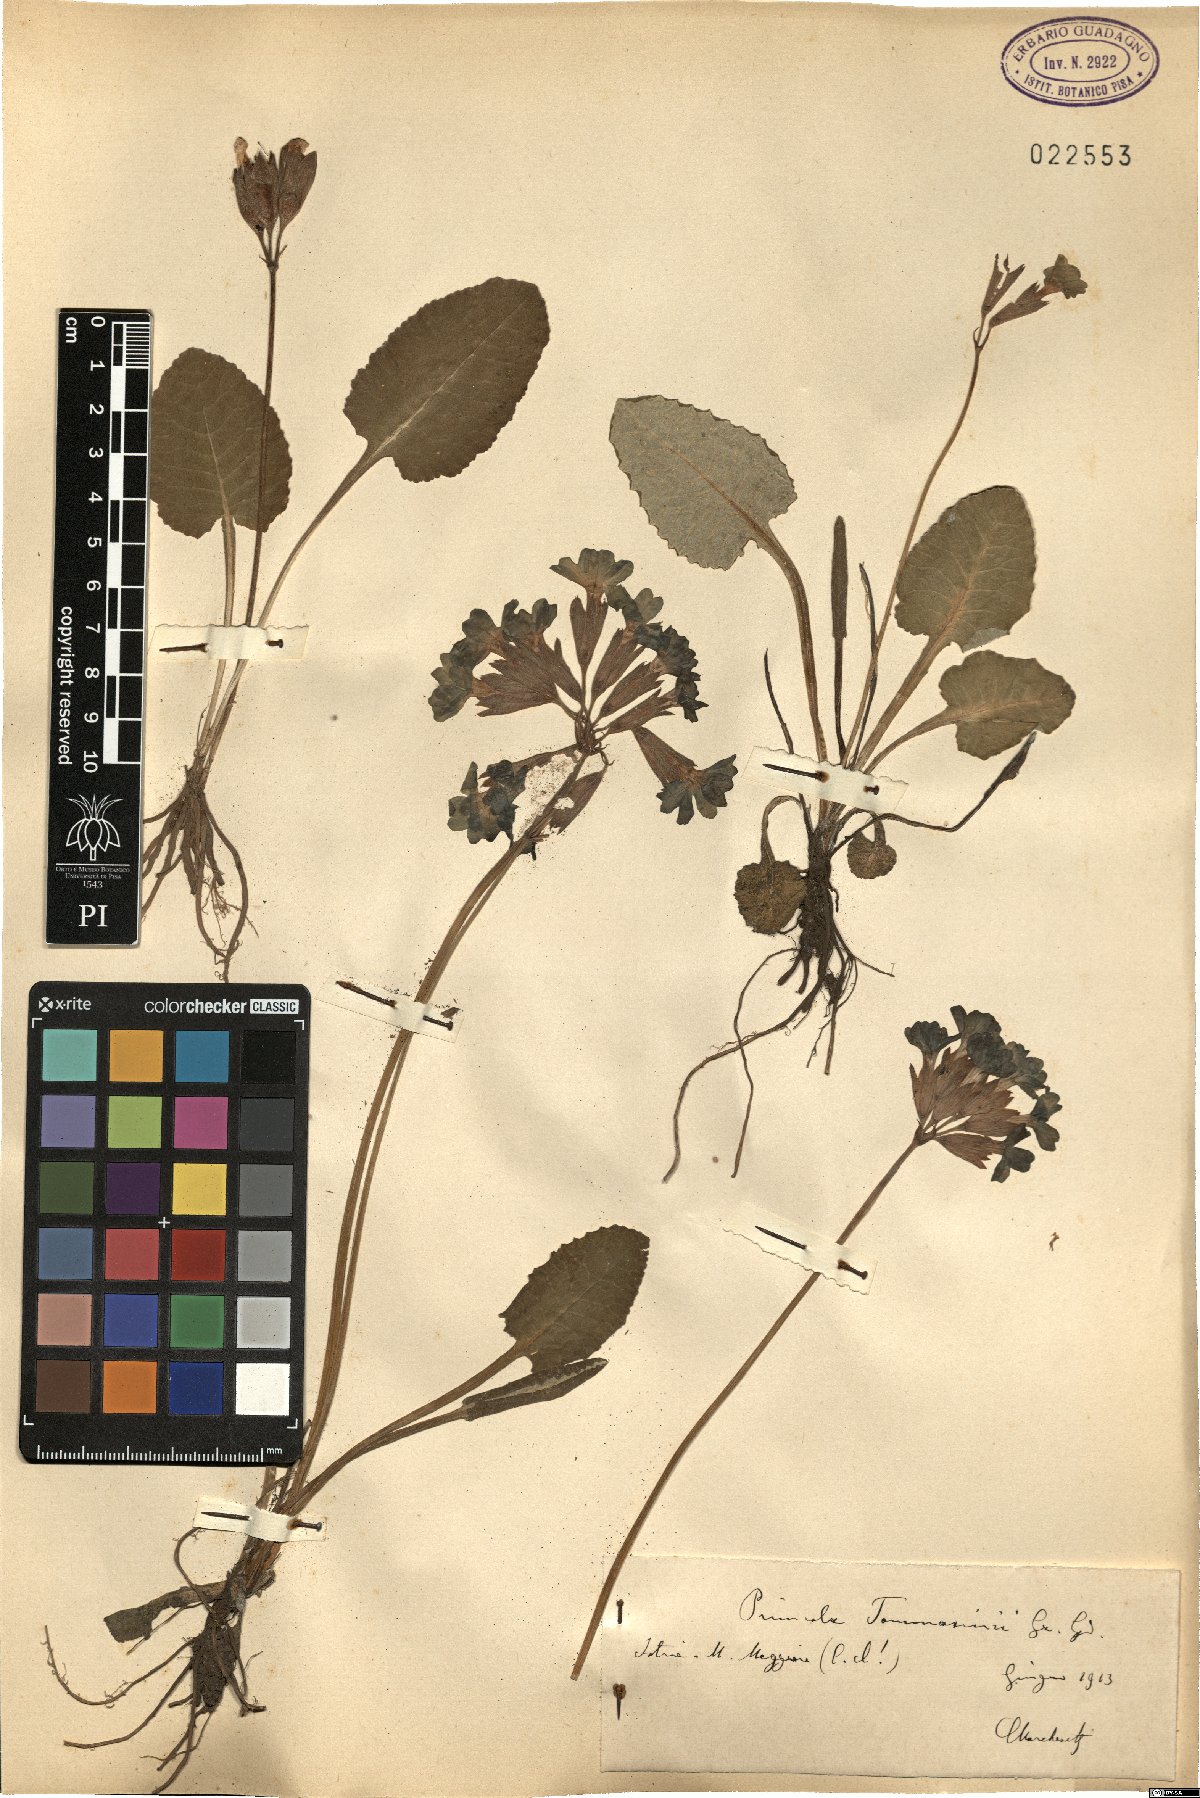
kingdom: Plantae
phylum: Tracheophyta
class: Magnoliopsida
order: Ericales
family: Primulaceae
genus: Primula
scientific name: Primula polyantha
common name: False oxlip
